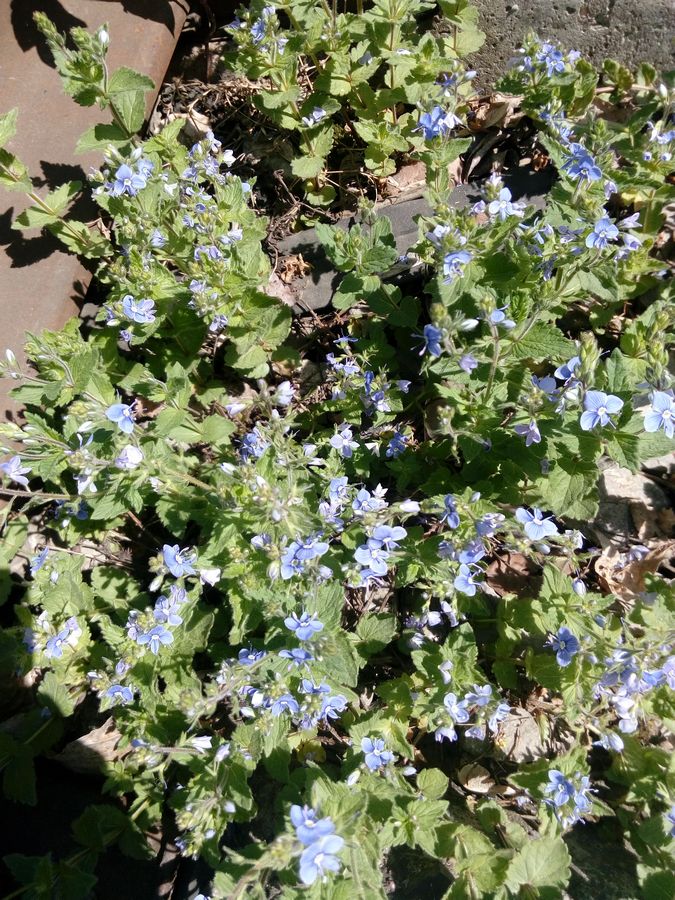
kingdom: Plantae
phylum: Tracheophyta
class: Magnoliopsida
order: Lamiales
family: Plantaginaceae
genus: Veronica
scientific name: Veronica chamaedrys
